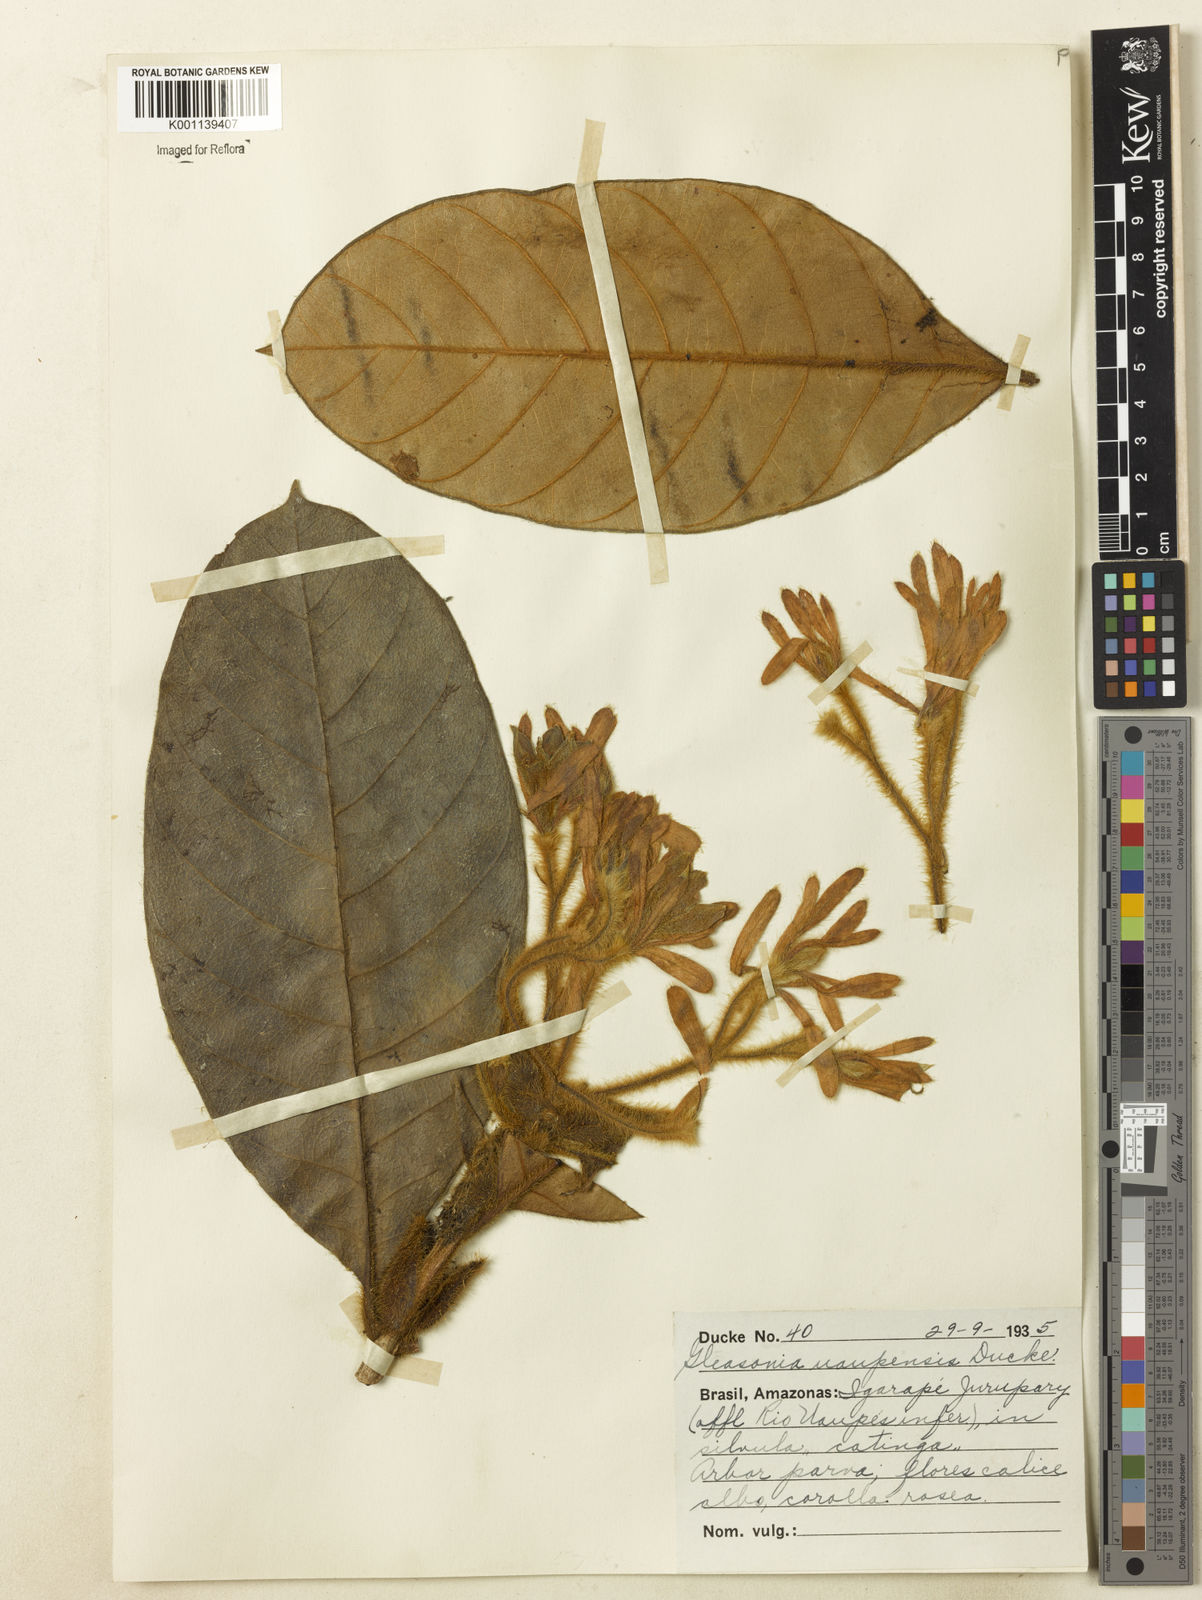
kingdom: Plantae
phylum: Tracheophyta
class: Magnoliopsida
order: Gentianales
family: Rubiaceae
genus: Gleasonia
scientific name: Gleasonia uaupensis
